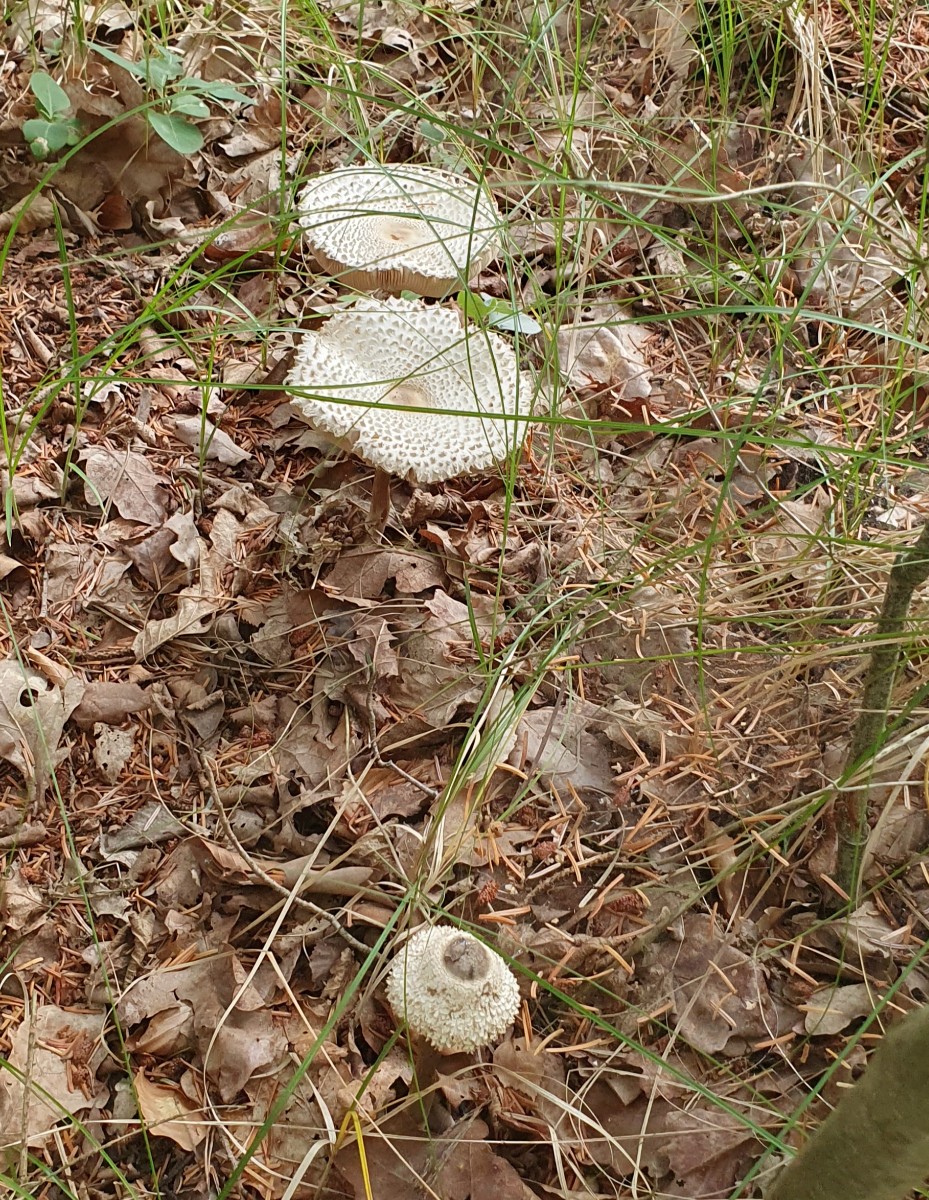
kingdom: Fungi
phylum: Basidiomycota
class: Agaricomycetes
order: Agaricales
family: Agaricaceae
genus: Leucoagaricus
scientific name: Leucoagaricus nympharum
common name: gran-silkehat
